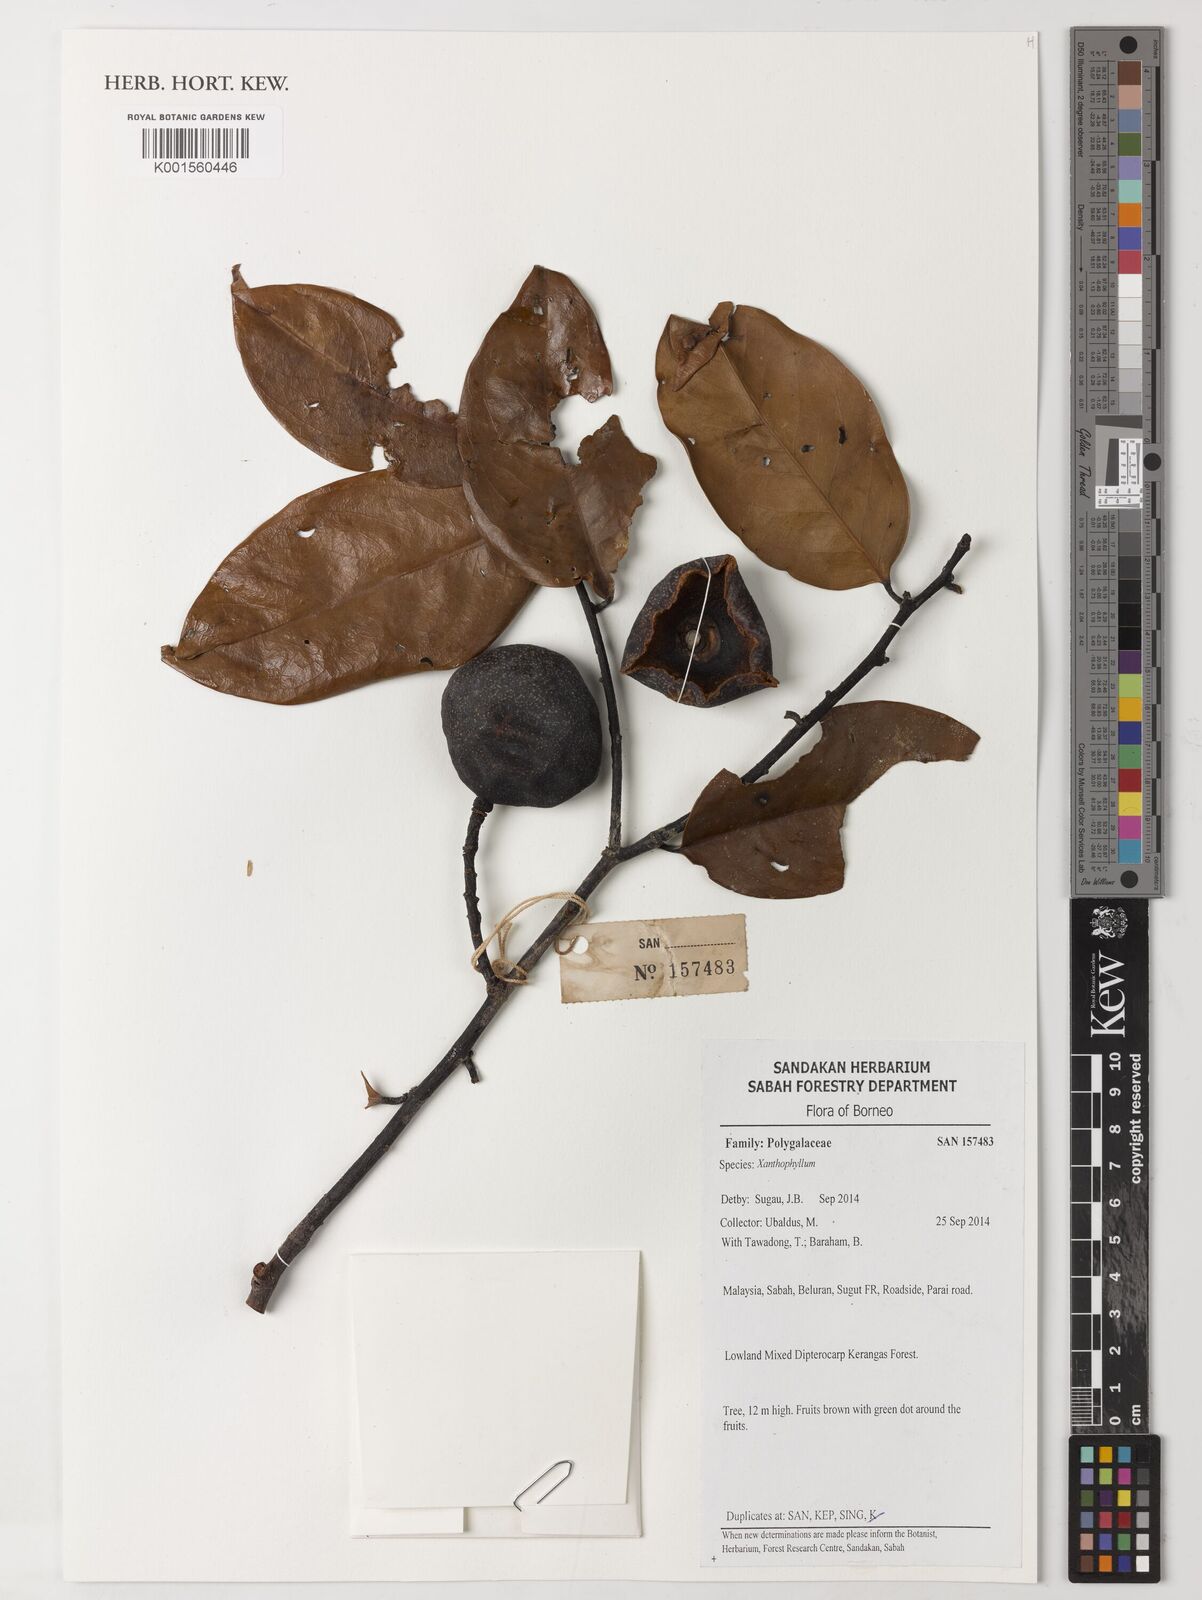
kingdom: Plantae
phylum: Tracheophyta
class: Magnoliopsida
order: Fabales
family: Polygalaceae
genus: Xanthophyllum
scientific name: Xanthophyllum
